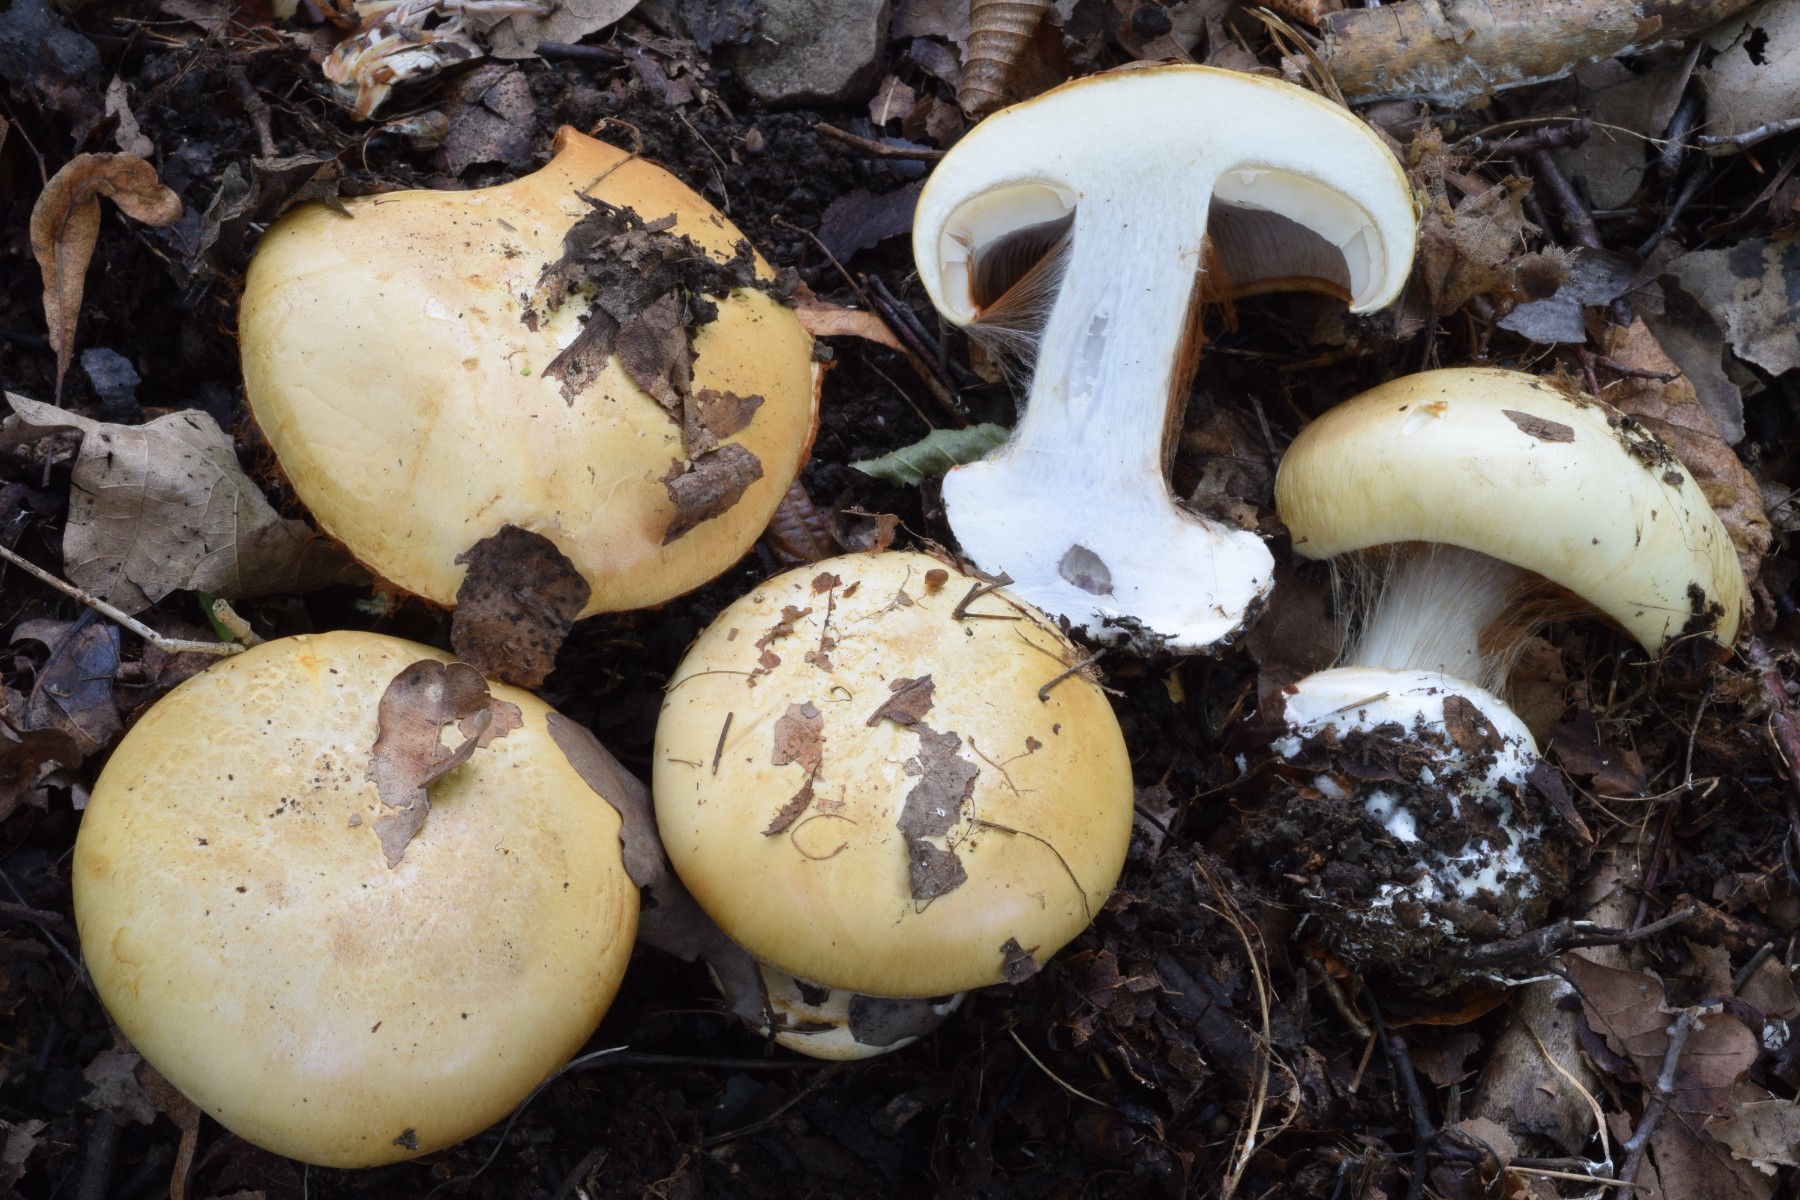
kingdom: Fungi
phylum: Basidiomycota
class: Agaricomycetes
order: Agaricales
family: Cortinariaceae
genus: Cortinarius
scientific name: Cortinarius caroviolaceus
